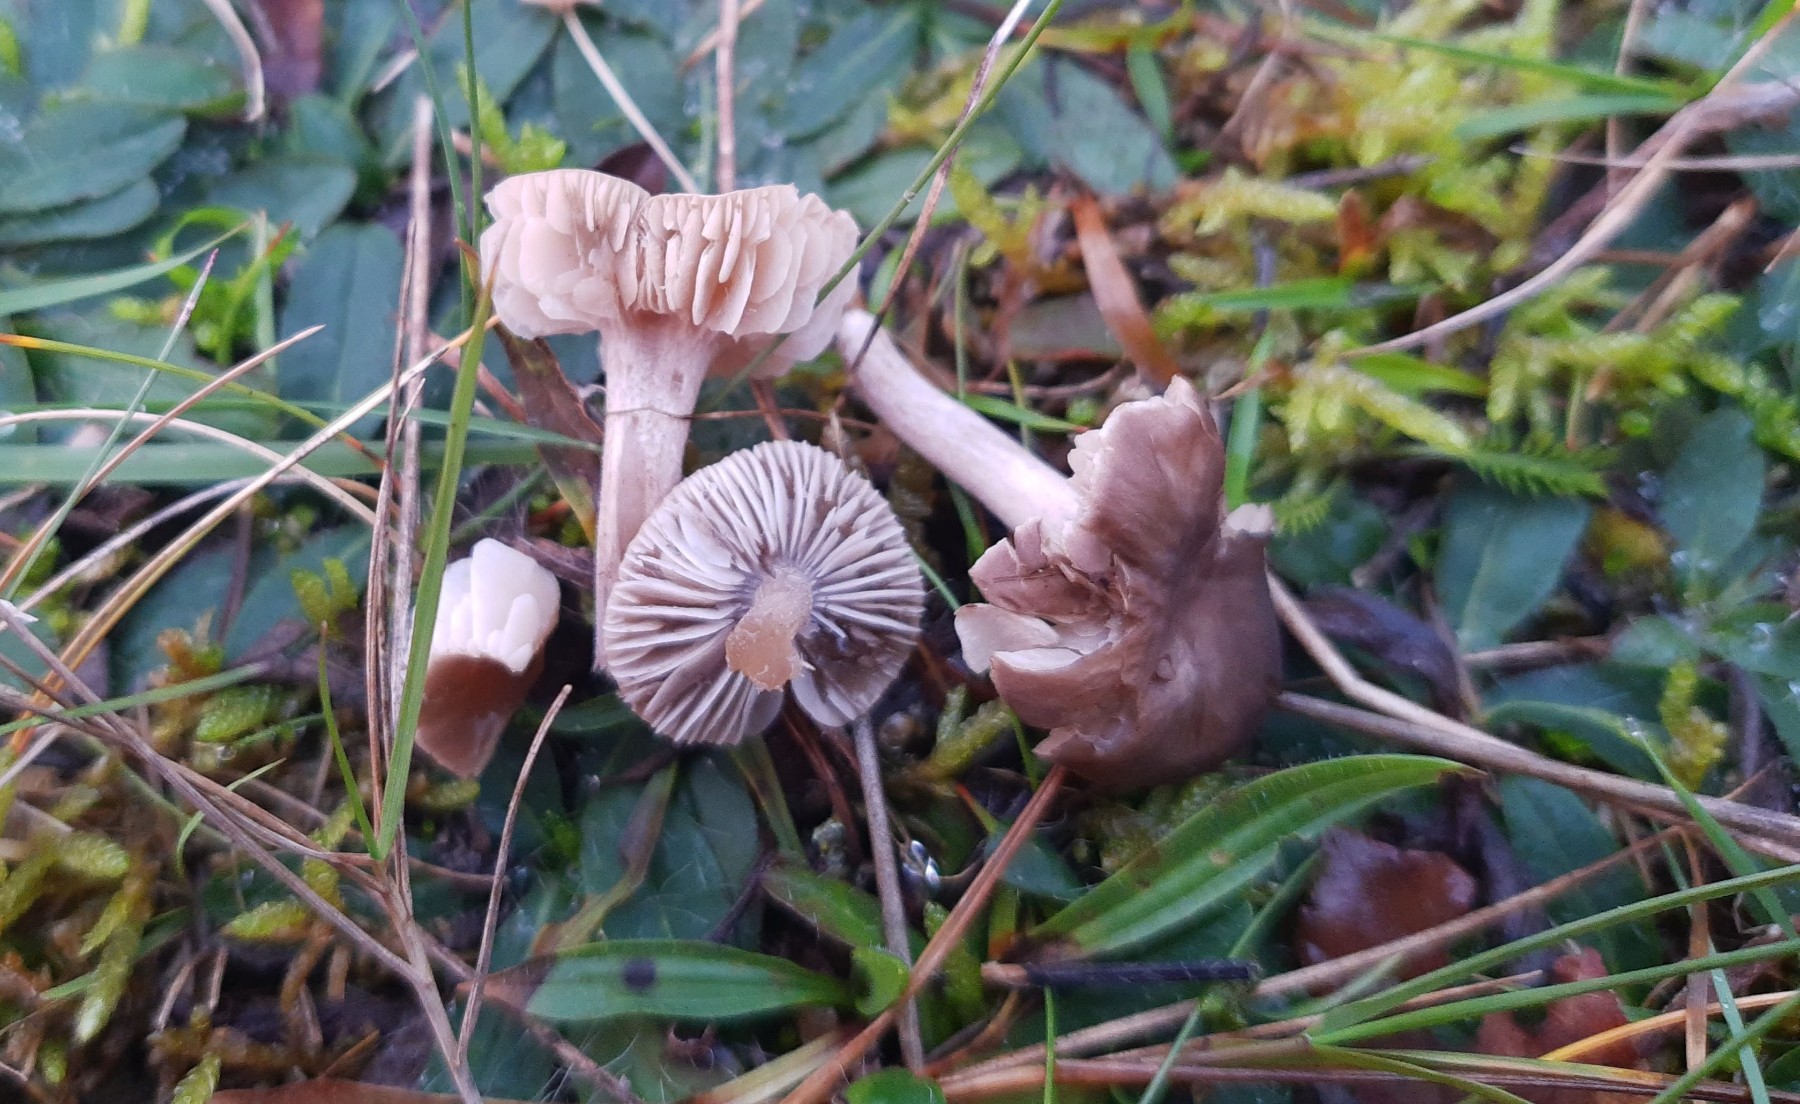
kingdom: Fungi
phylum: Basidiomycota
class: Agaricomycetes
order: Agaricales
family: Tricholomataceae
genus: Dermoloma
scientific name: Dermoloma cuneifolium
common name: eng-nonnehat
